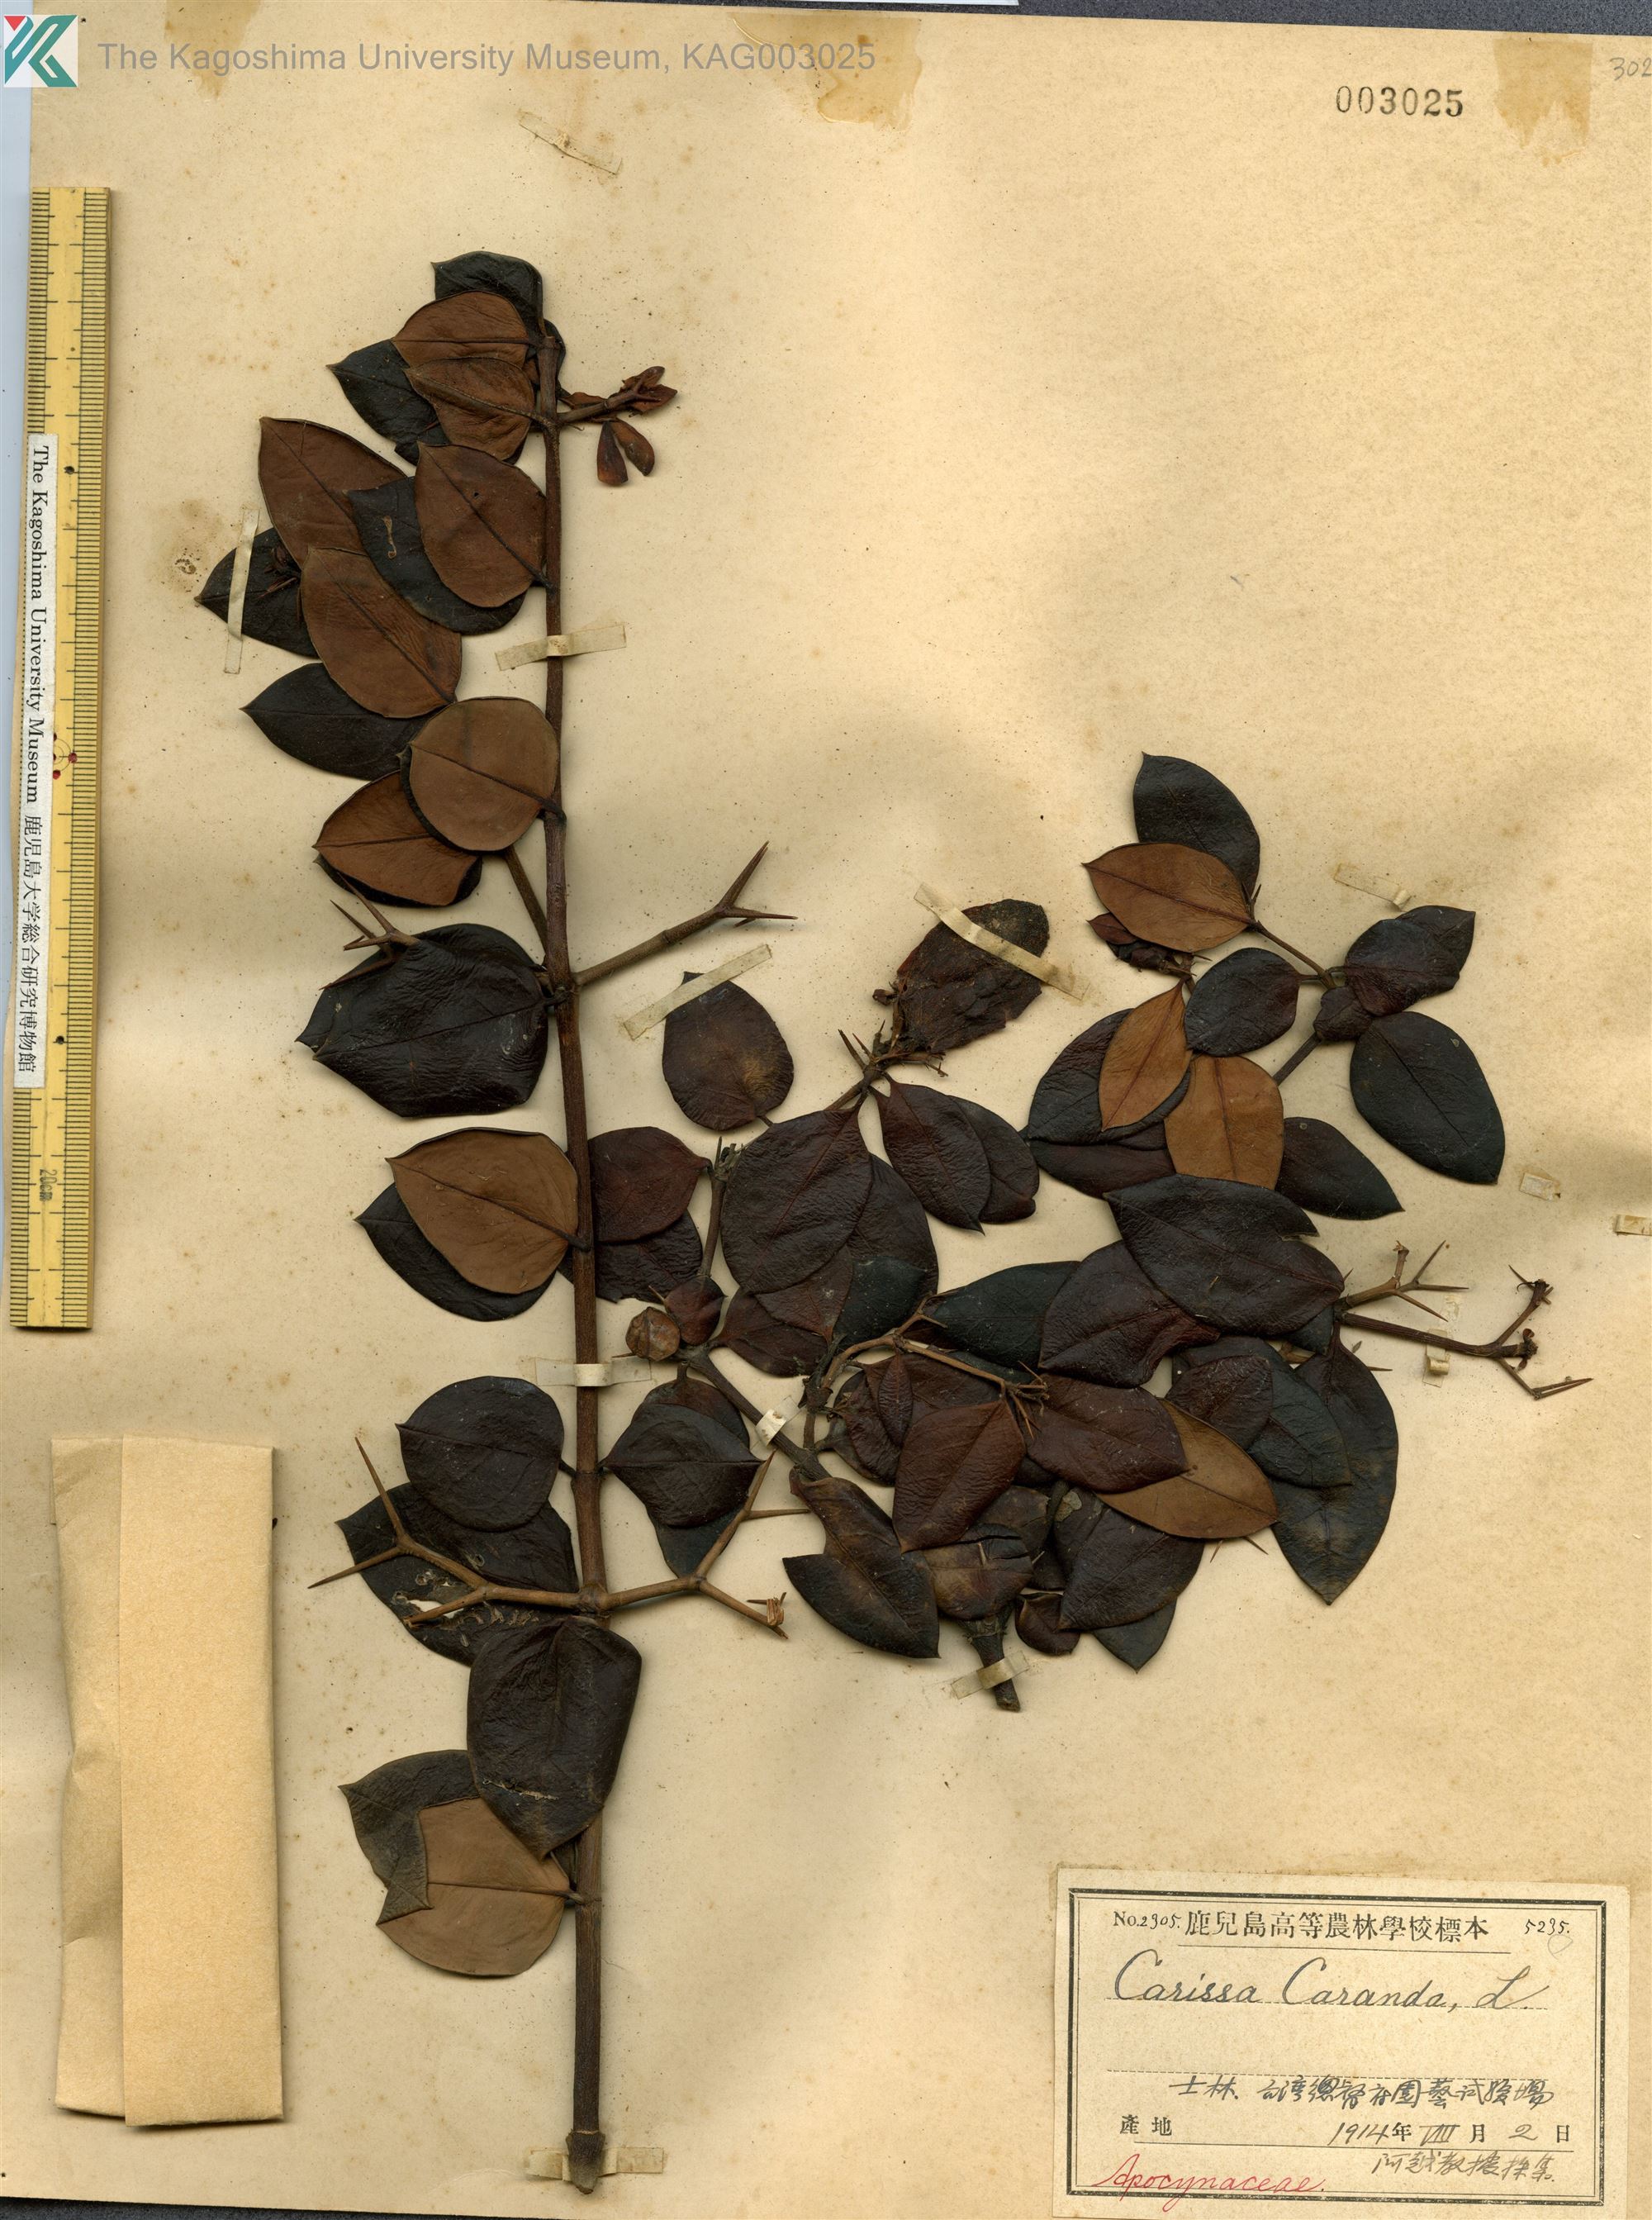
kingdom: Plantae
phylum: Tracheophyta
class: Magnoliopsida
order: Gentianales
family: Apocynaceae
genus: Carissa
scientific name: Carissa carandas
